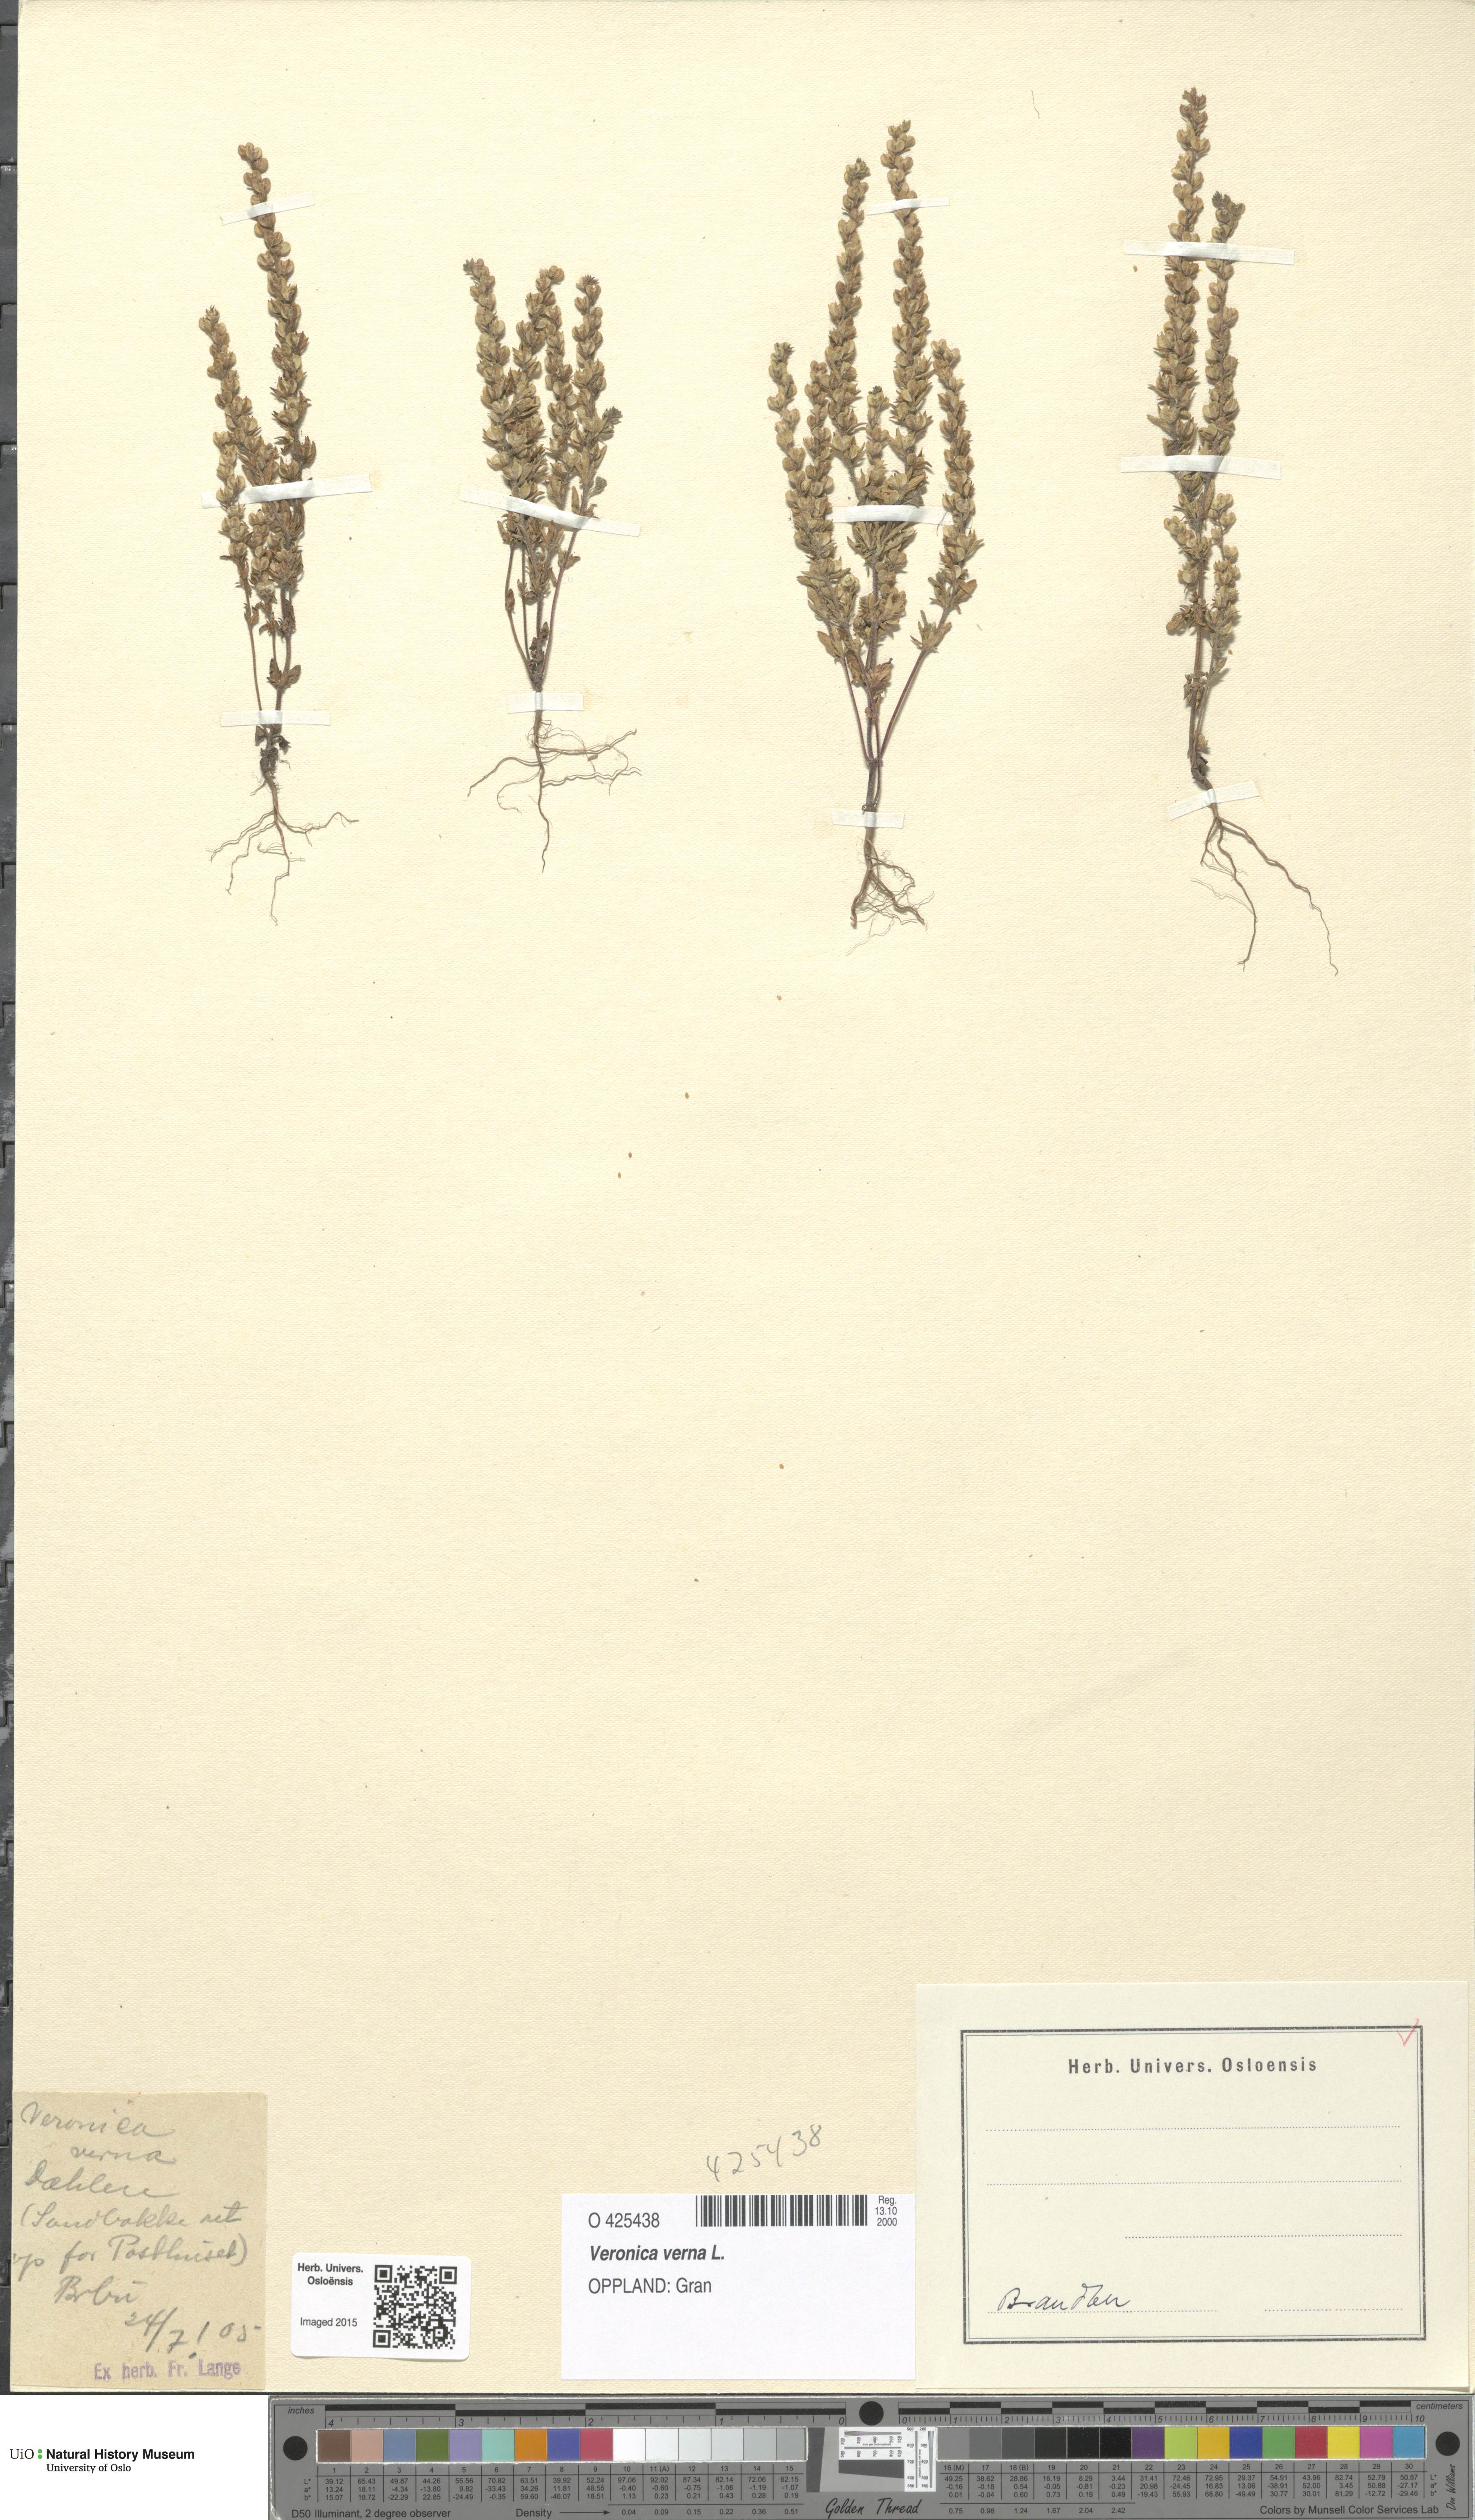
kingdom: Plantae
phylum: Tracheophyta
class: Magnoliopsida
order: Lamiales
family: Plantaginaceae
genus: Veronica
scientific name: Veronica verna
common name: Spring speedwell
